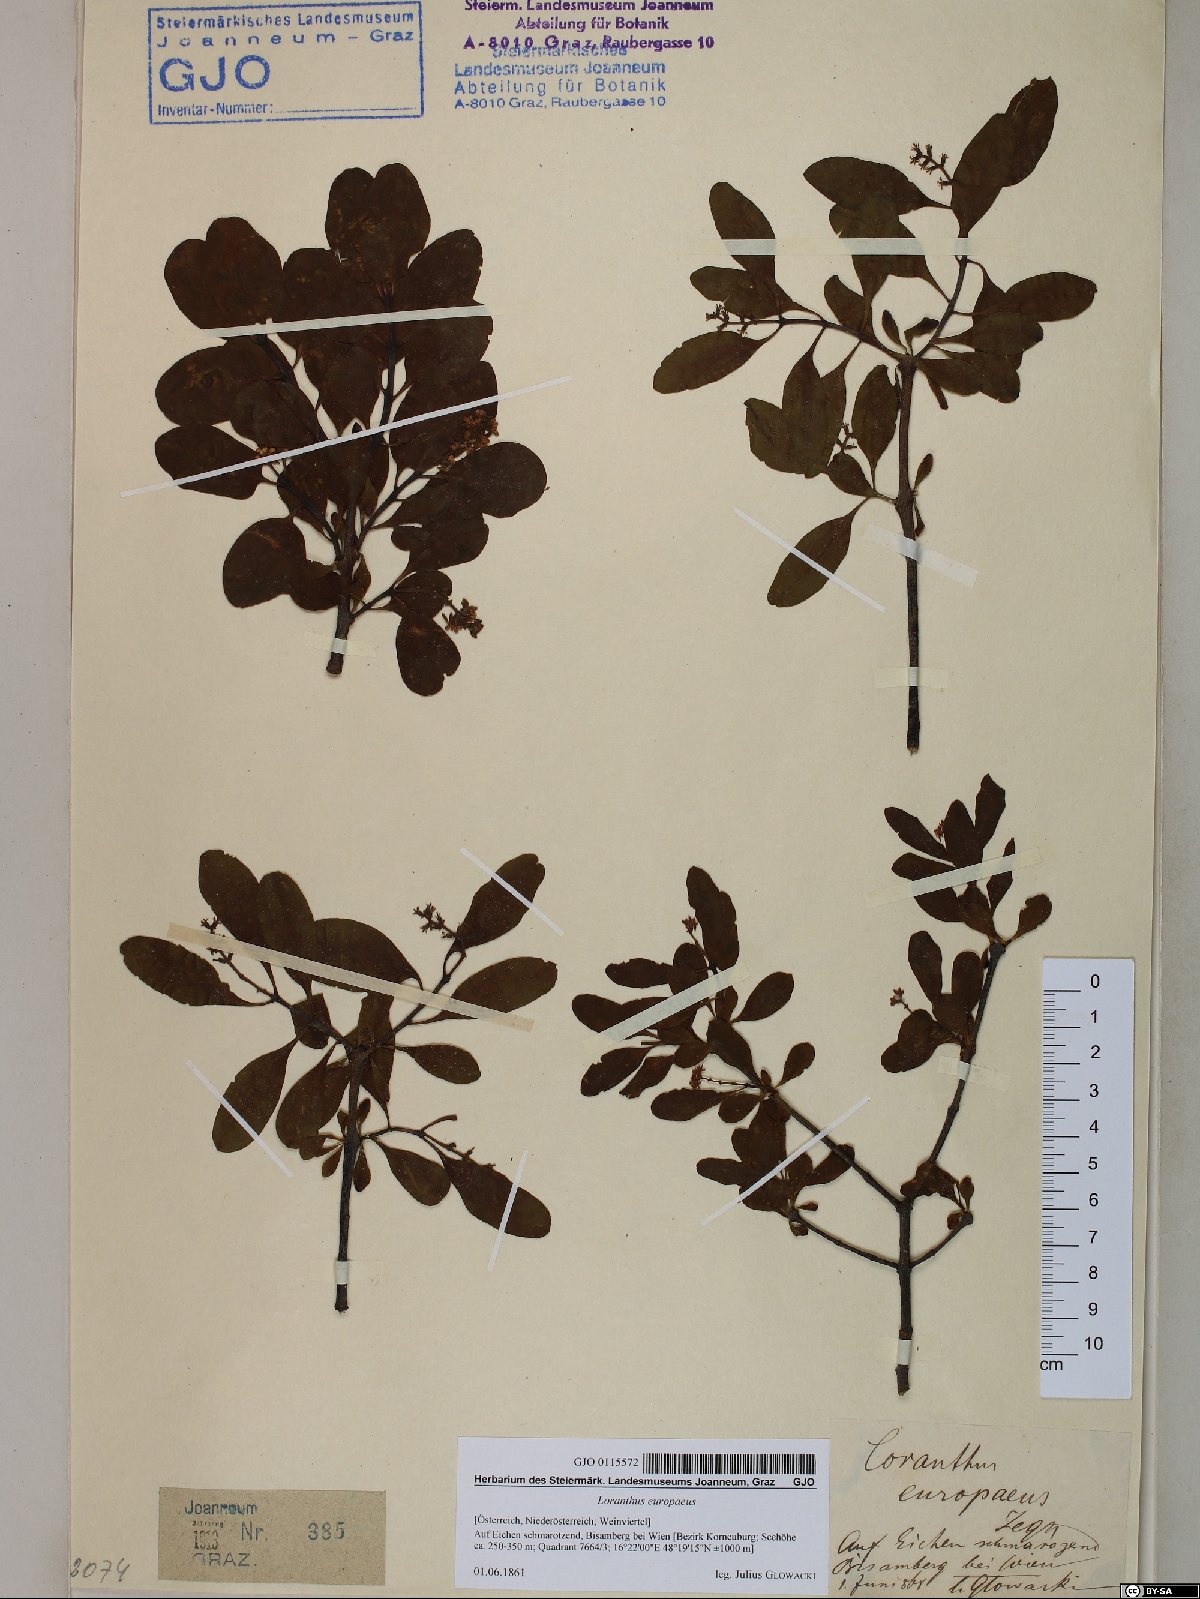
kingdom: Plantae
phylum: Tracheophyta
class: Magnoliopsida
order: Santalales
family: Loranthaceae
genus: Loranthus
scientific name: Loranthus europaeus
